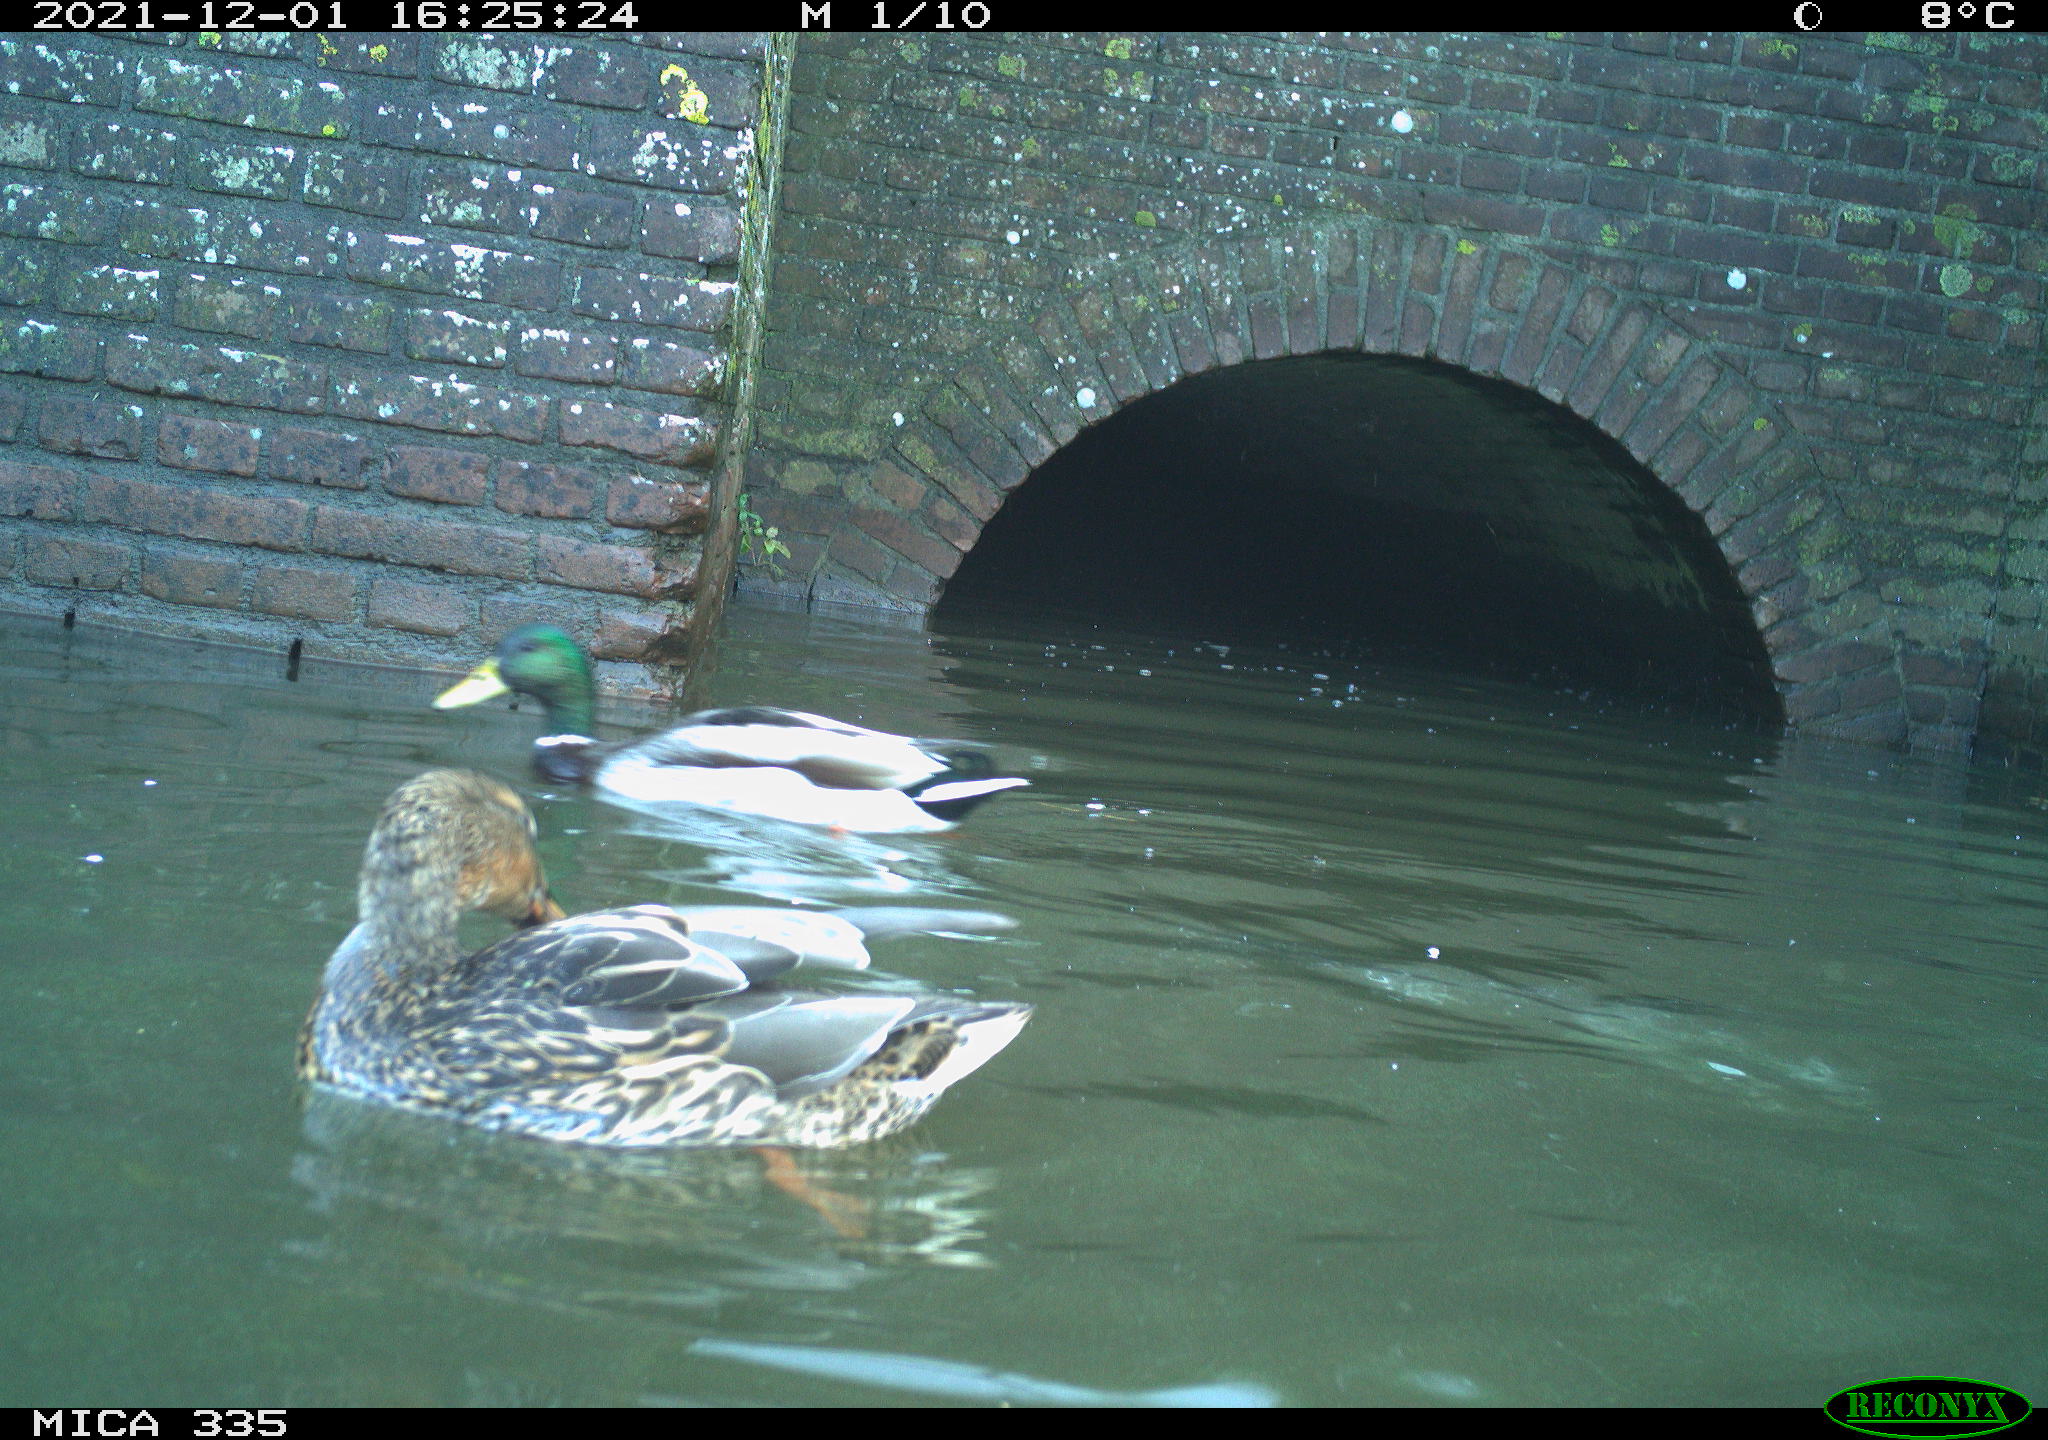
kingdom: Animalia
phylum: Chordata
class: Aves
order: Anseriformes
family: Anatidae
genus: Anas
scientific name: Anas platyrhynchos
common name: Mallard
